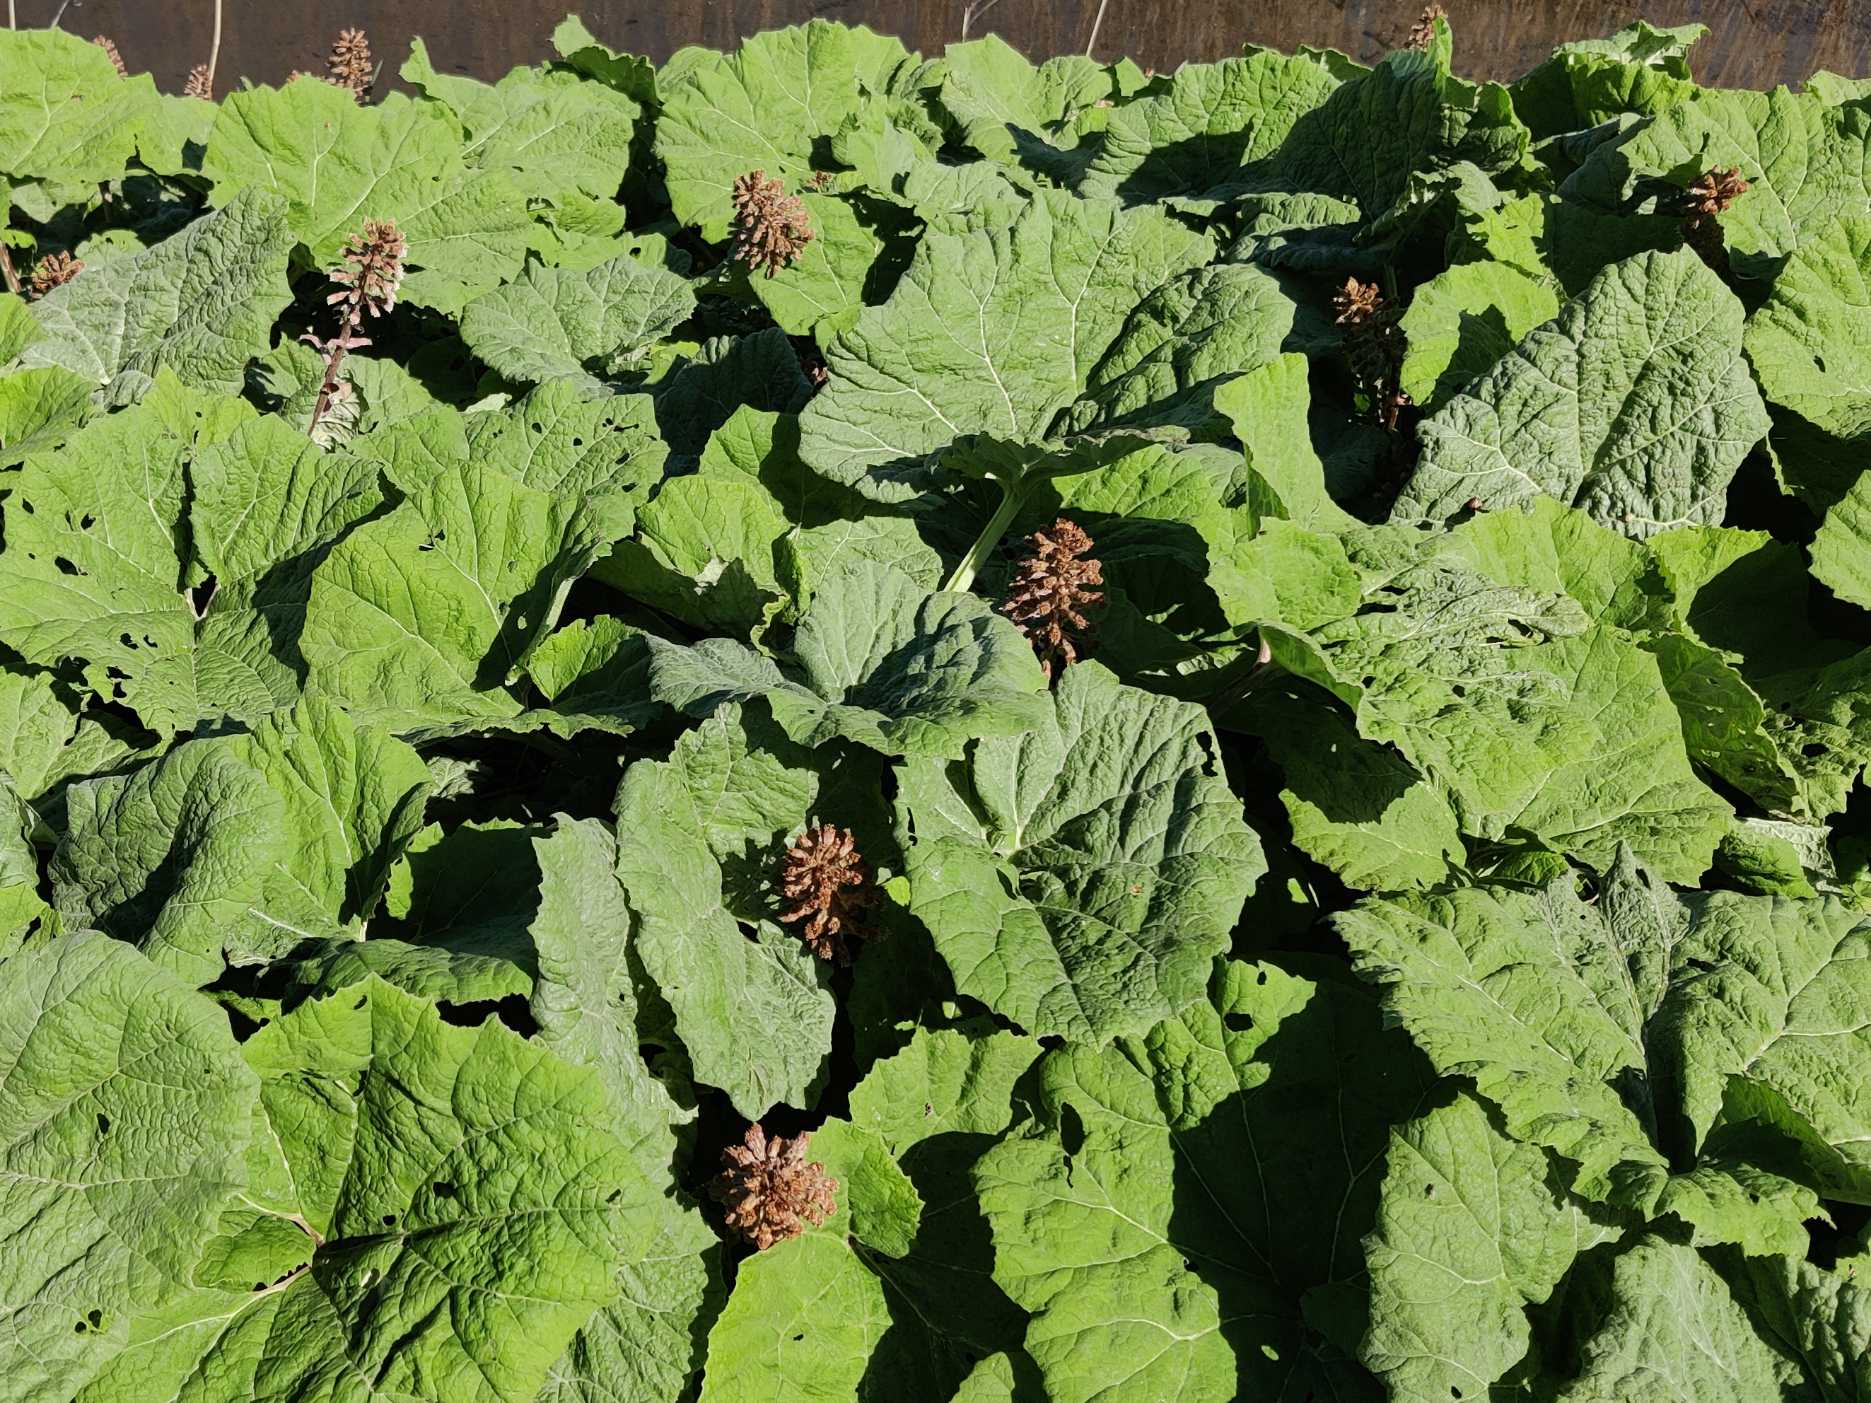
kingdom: Plantae
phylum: Tracheophyta
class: Magnoliopsida
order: Asterales
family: Asteraceae
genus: Petasites
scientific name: Petasites hybridus
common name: Rød hestehov
